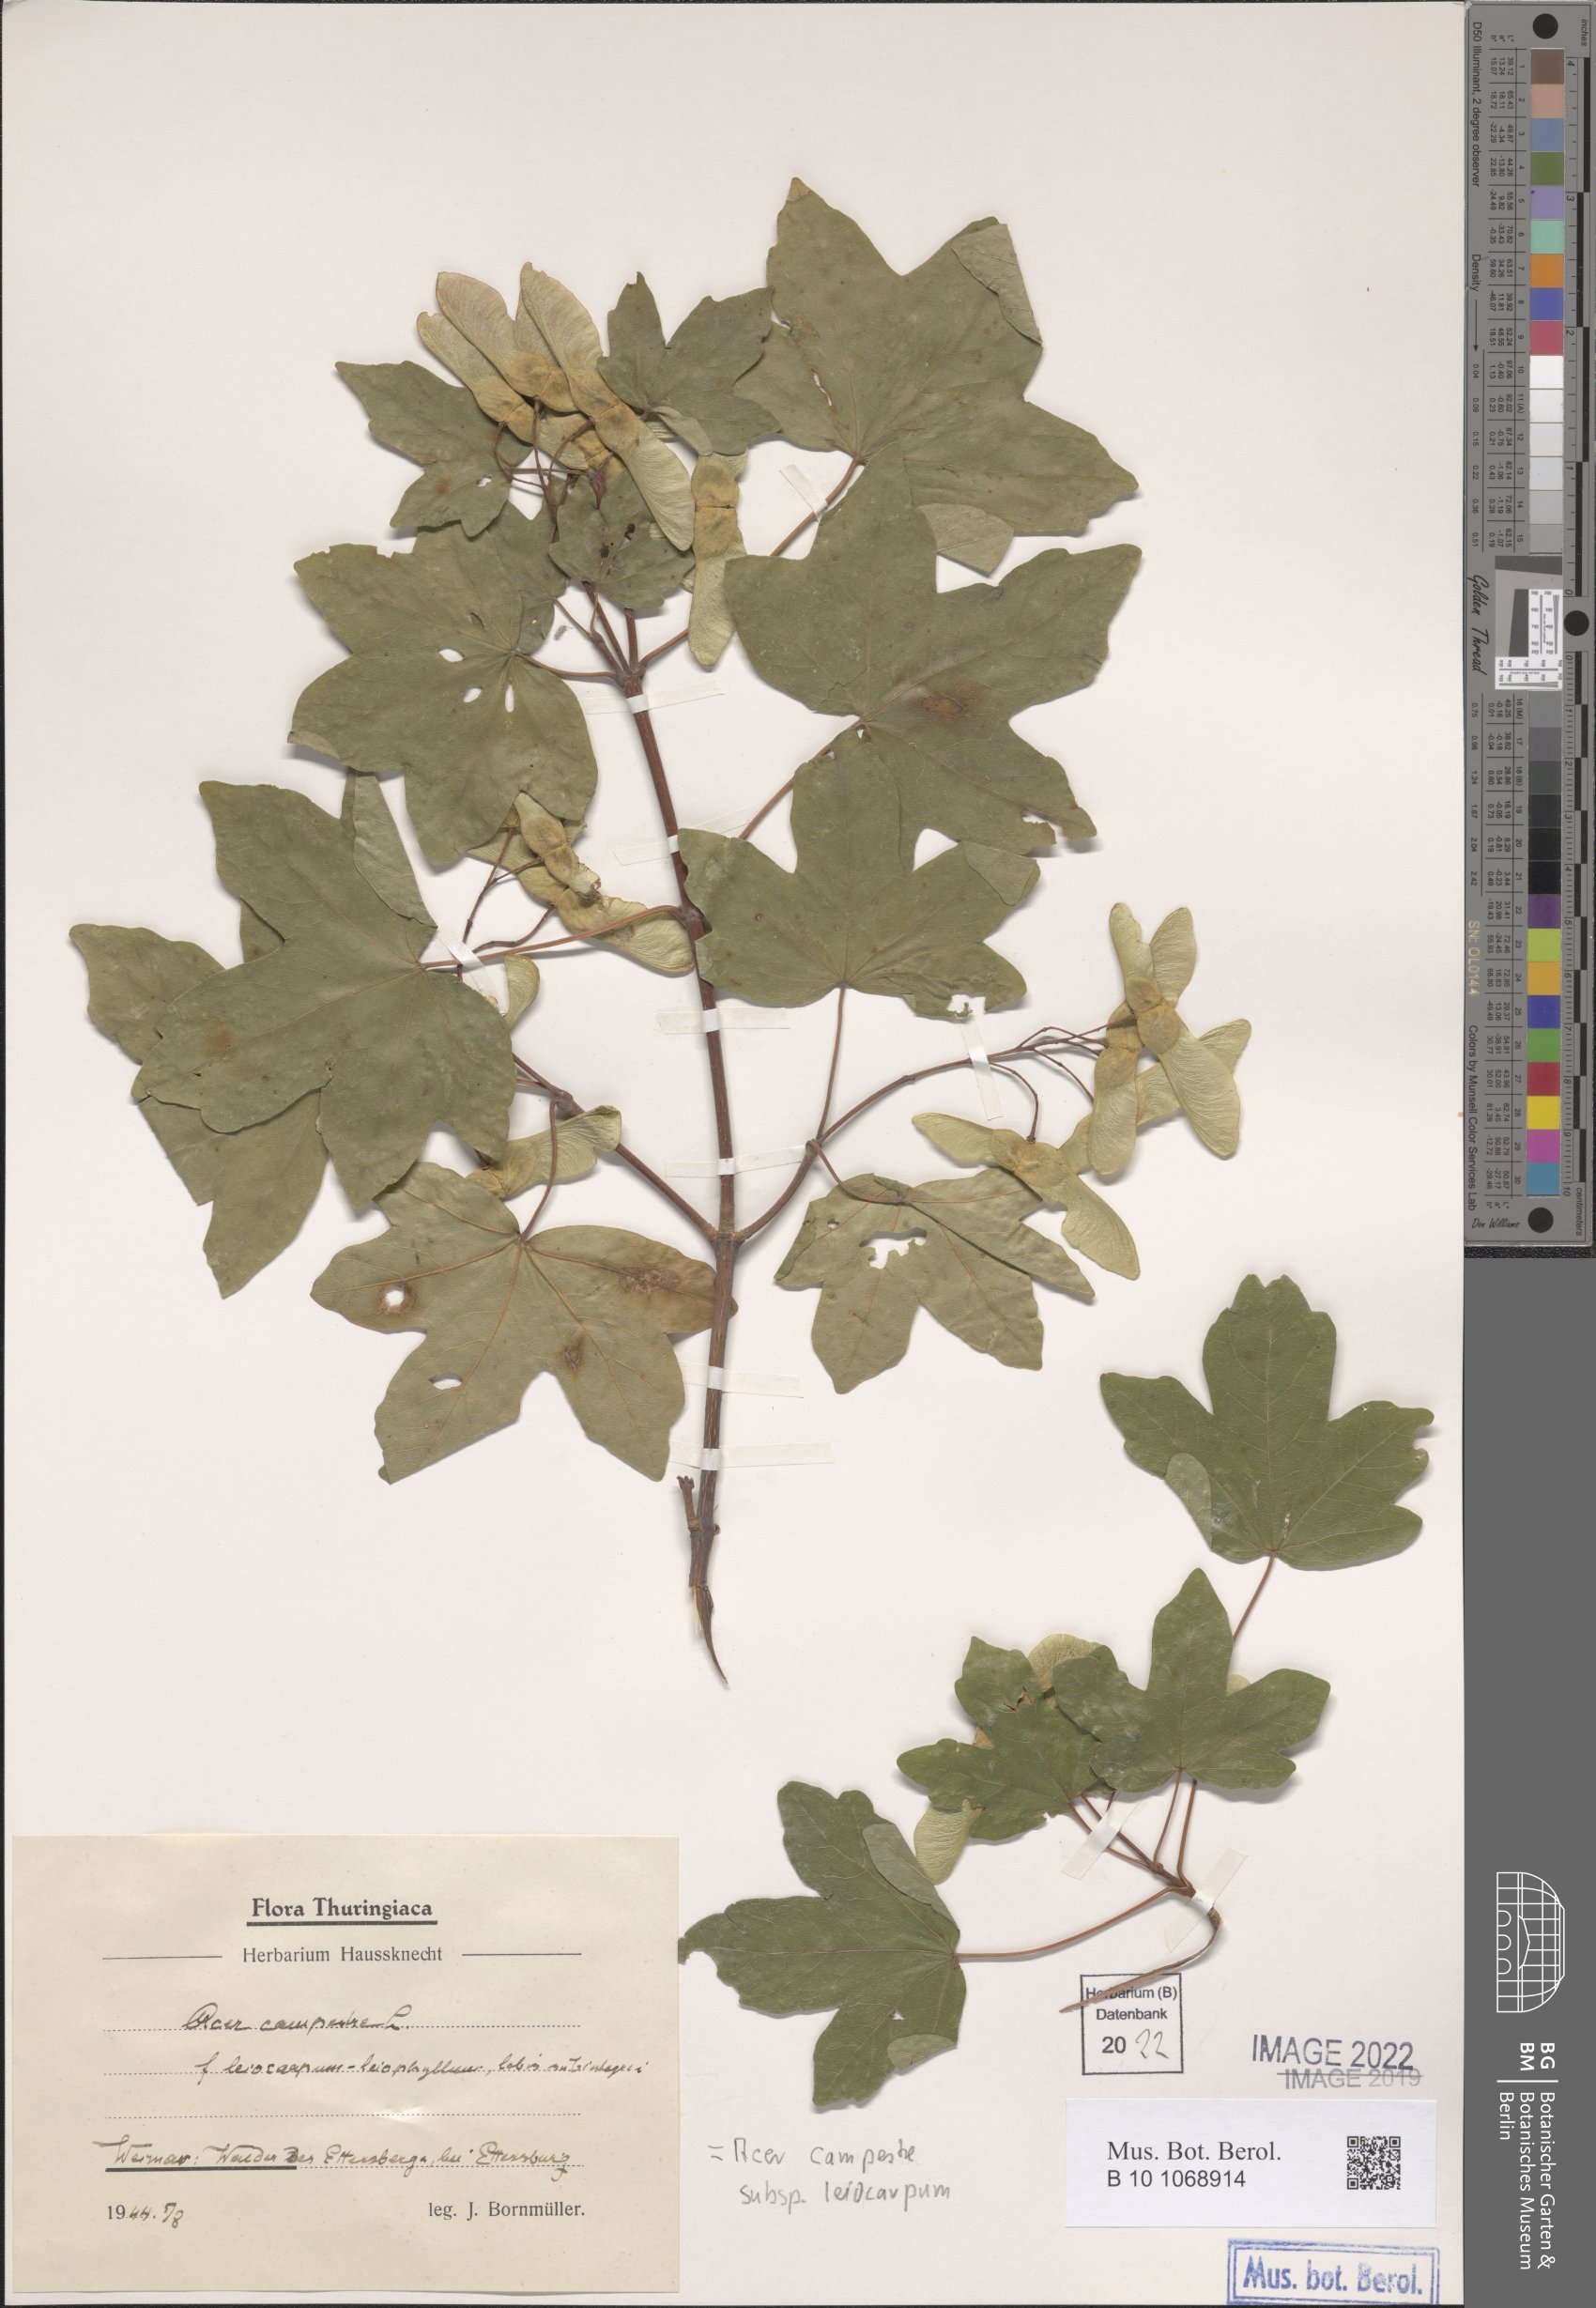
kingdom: Plantae
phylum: Tracheophyta
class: Magnoliopsida
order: Sapindales
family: Sapindaceae
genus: Acer
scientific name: Acer campestre
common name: Field maple
